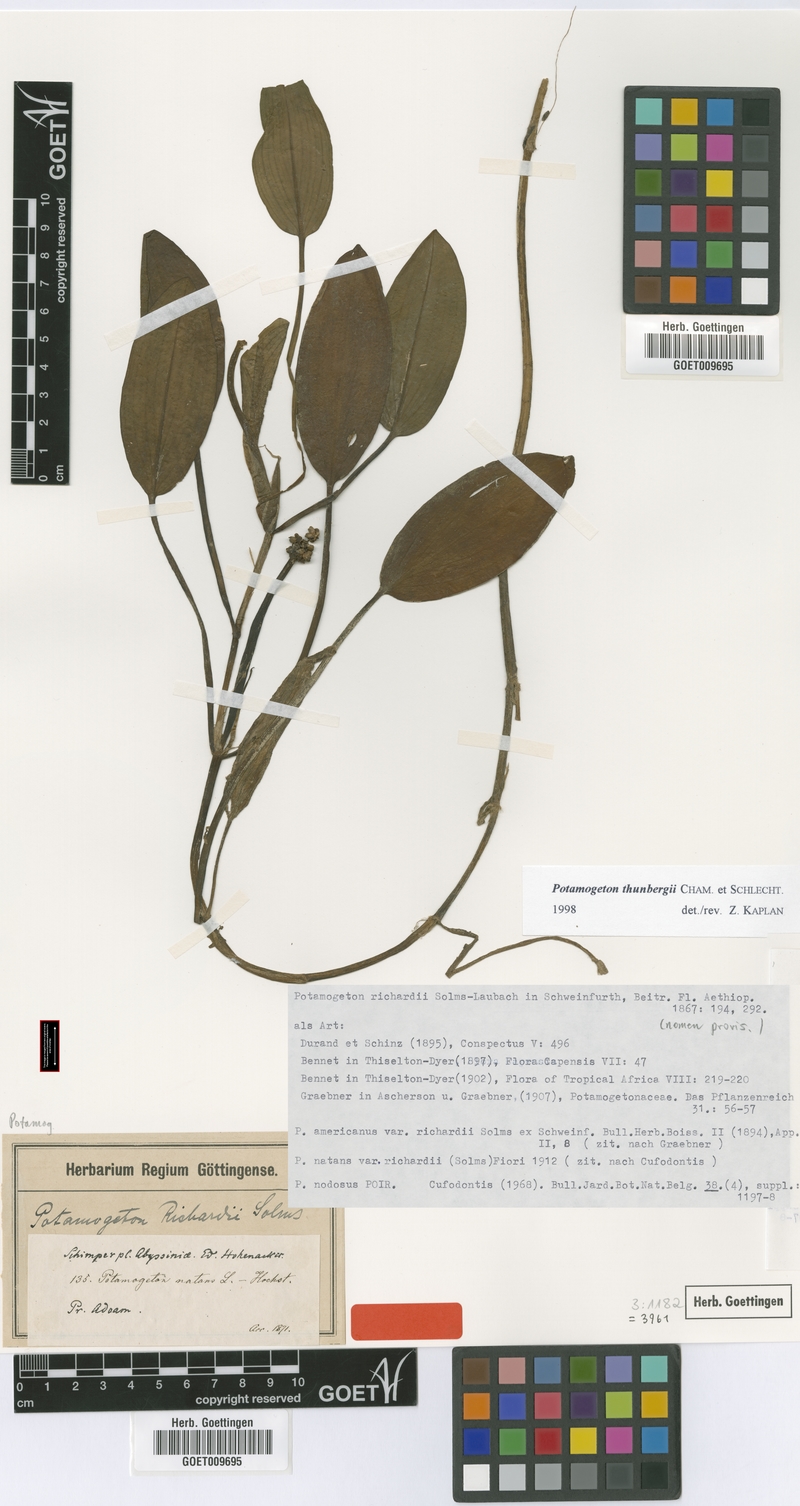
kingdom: Plantae
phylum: Tracheophyta
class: Liliopsida
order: Alismatales
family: Potamogetonaceae
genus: Potamogeton
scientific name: Potamogeton nodosus
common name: Loddon pondweed
